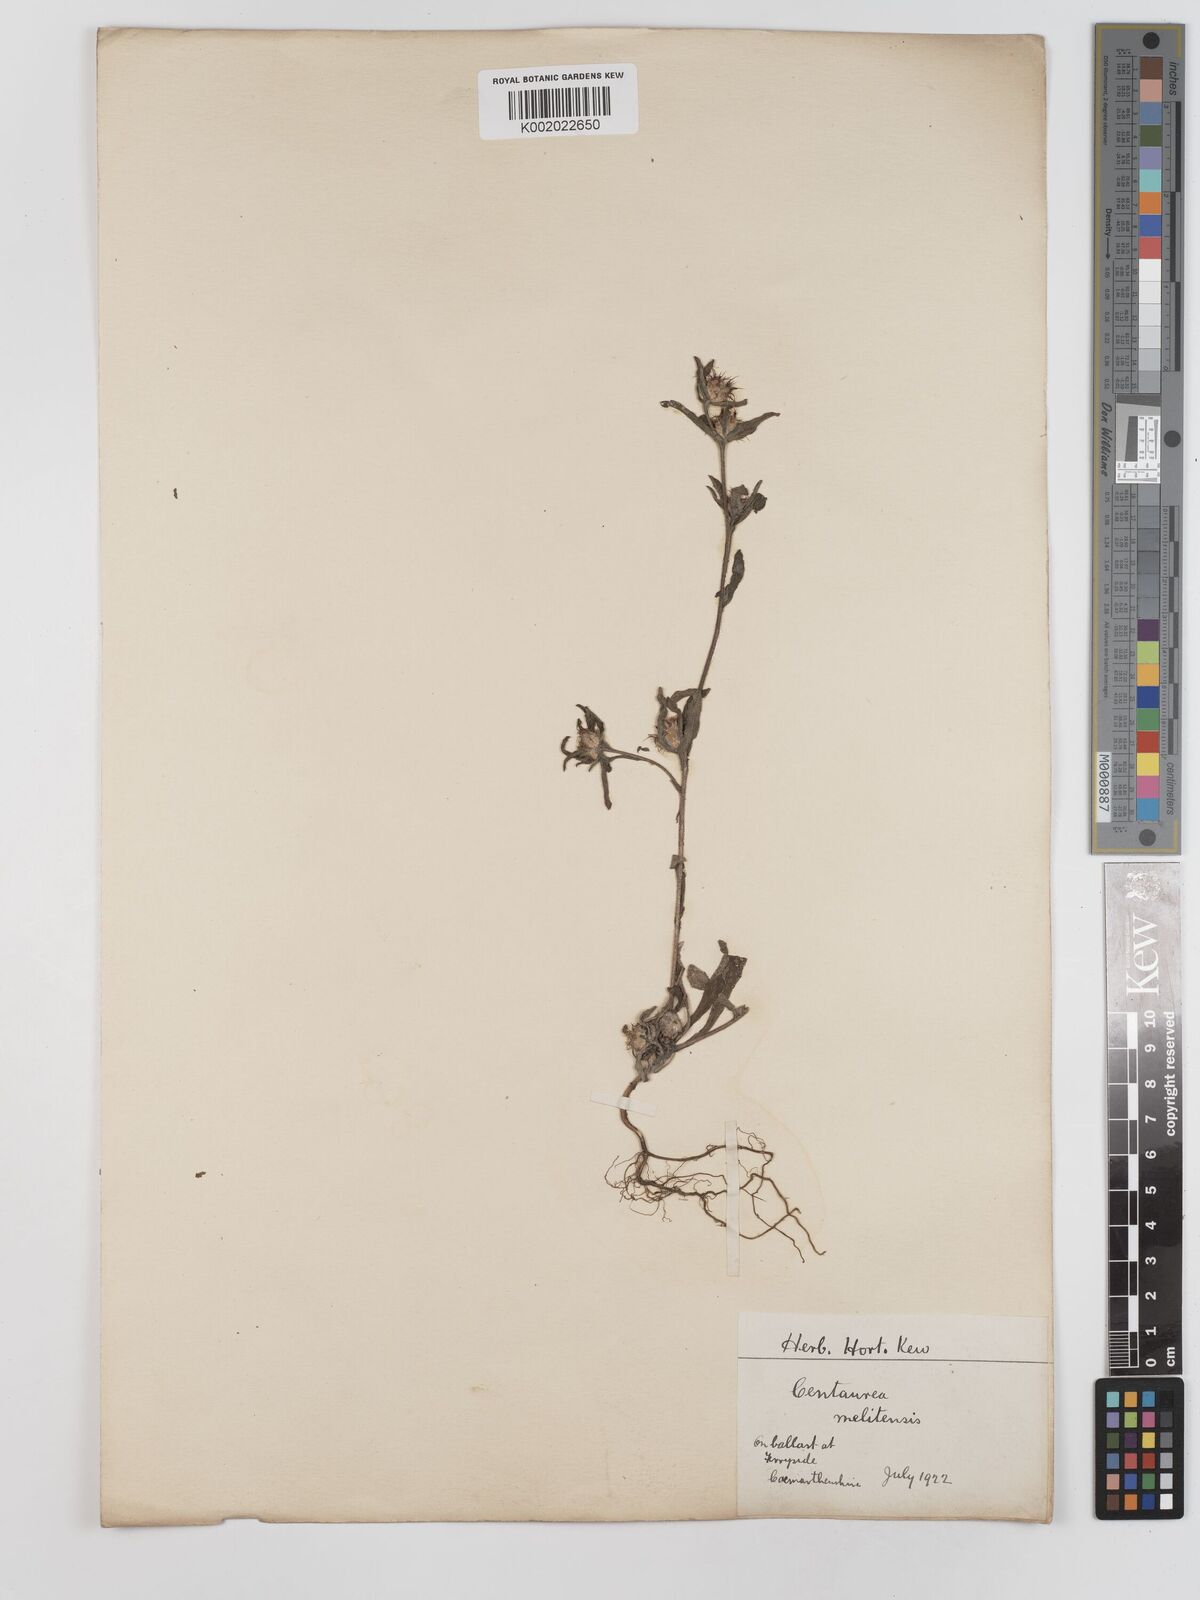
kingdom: Plantae
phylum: Tracheophyta
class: Magnoliopsida
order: Asterales
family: Asteraceae
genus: Centaurea
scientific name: Centaurea melitensis
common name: Maltese star-thistle
